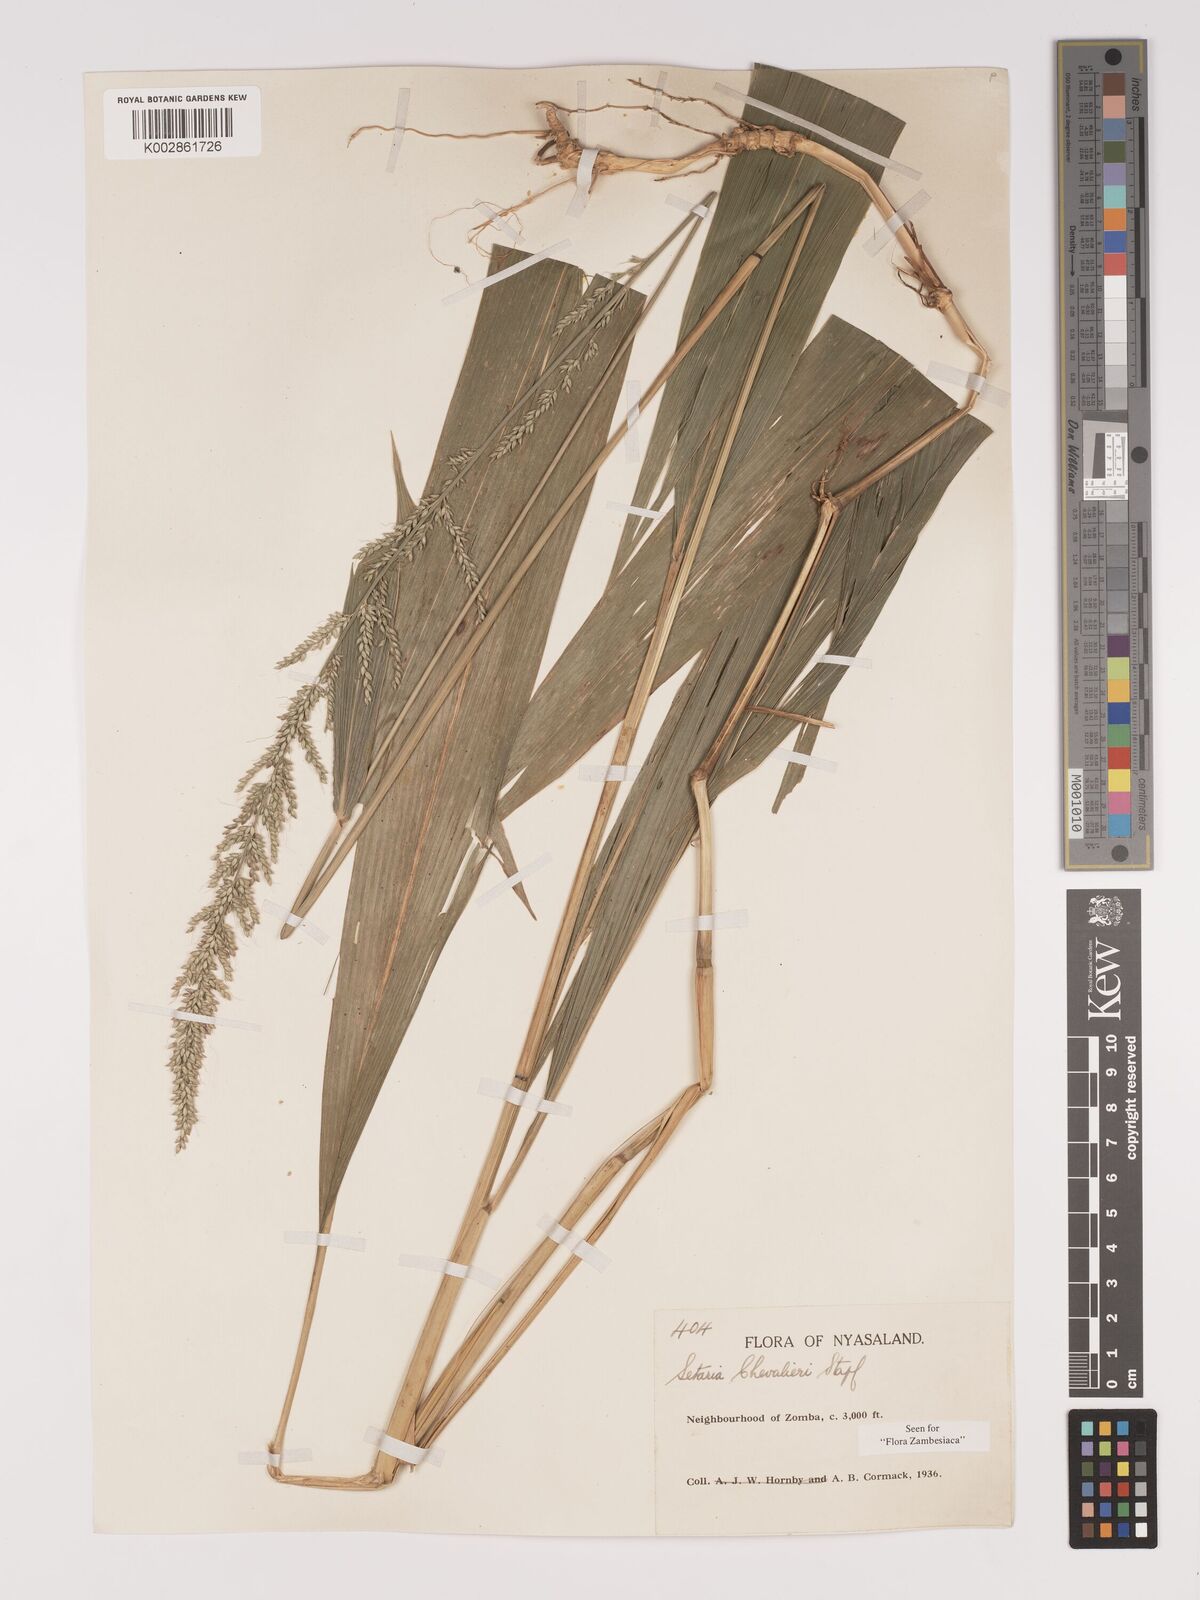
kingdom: Plantae
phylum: Tracheophyta
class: Liliopsida
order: Poales
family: Poaceae
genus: Setaria
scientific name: Setaria megaphylla
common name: Bigleaf bristlegrass
